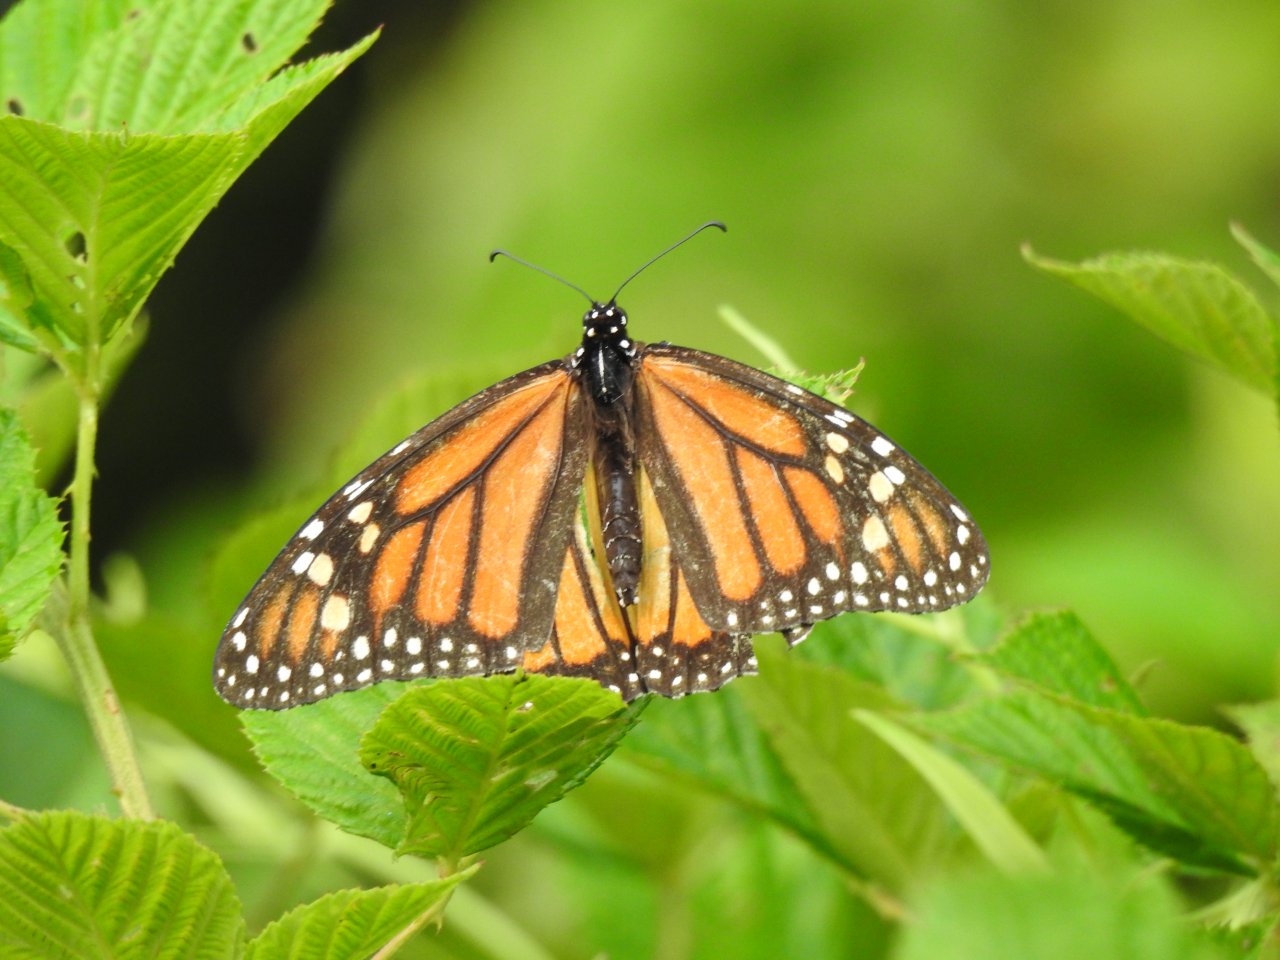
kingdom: Animalia
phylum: Arthropoda
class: Insecta
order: Lepidoptera
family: Nymphalidae
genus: Danaus
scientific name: Danaus plexippus
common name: Monarch
